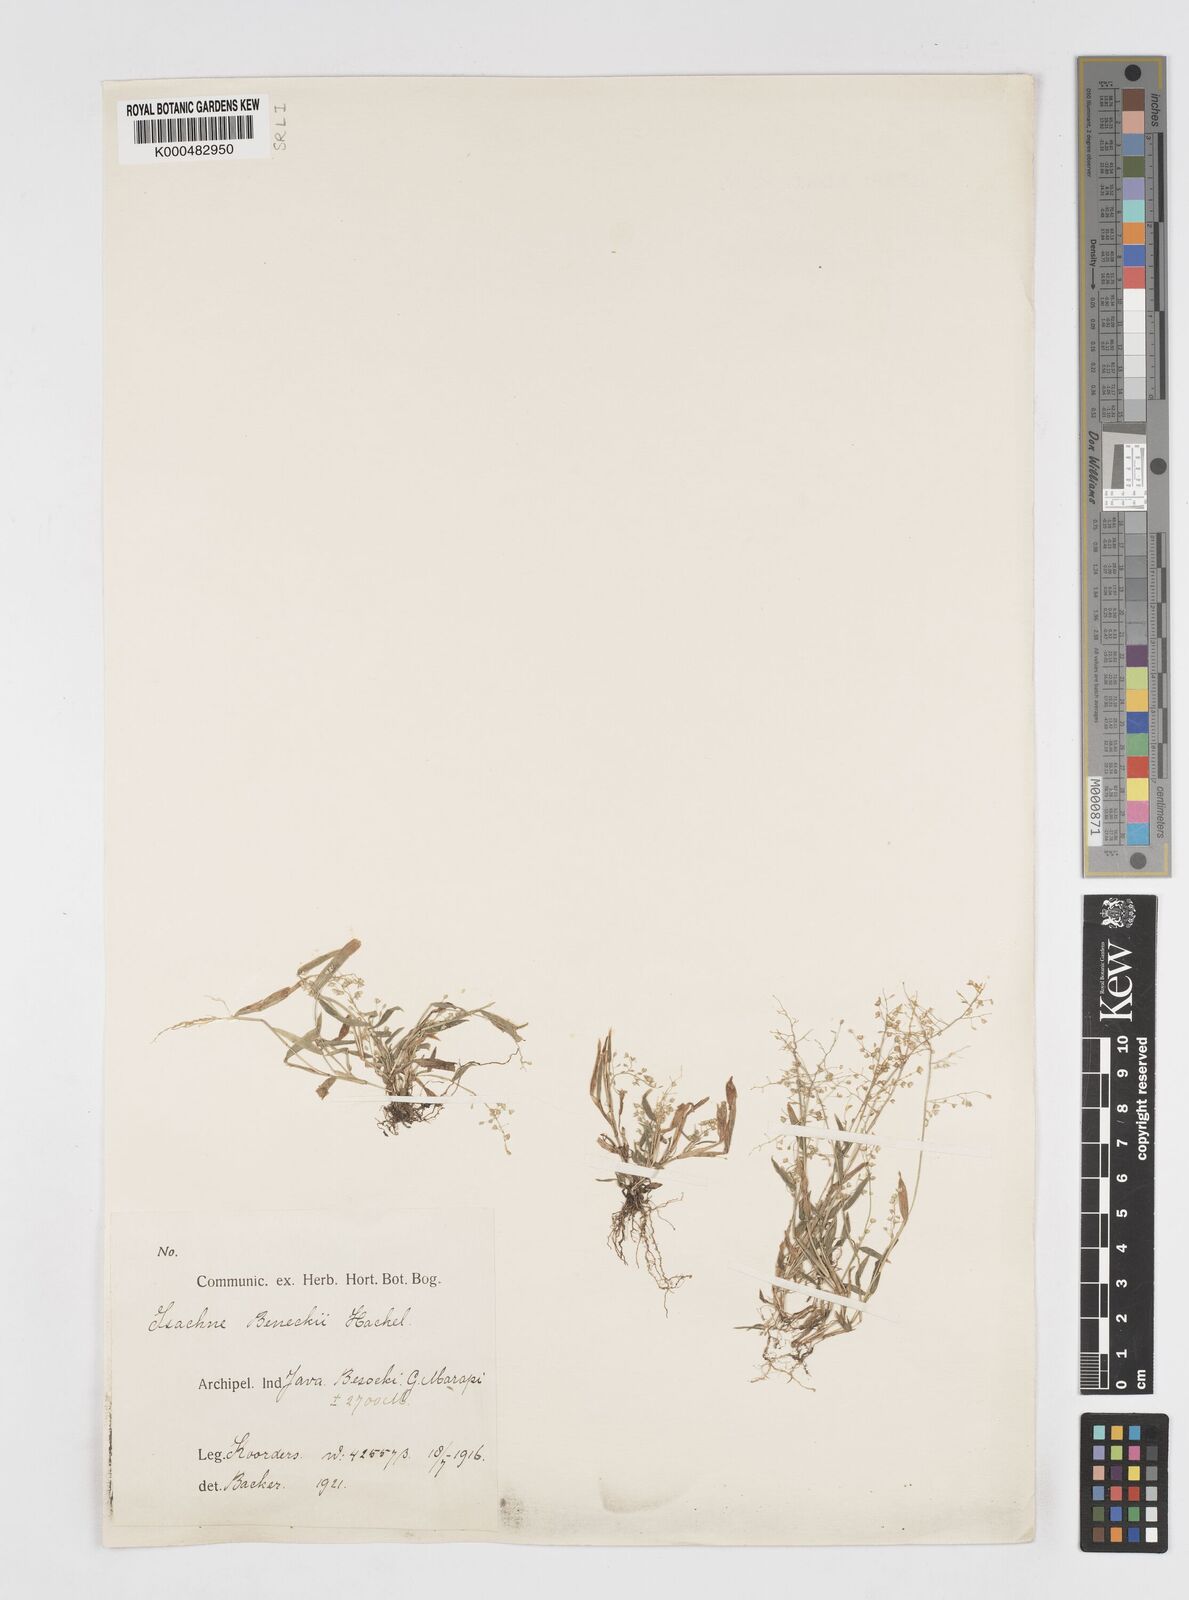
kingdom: Plantae
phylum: Tracheophyta
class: Liliopsida
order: Poales
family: Poaceae
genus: Isachne
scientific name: Isachne clarkei
